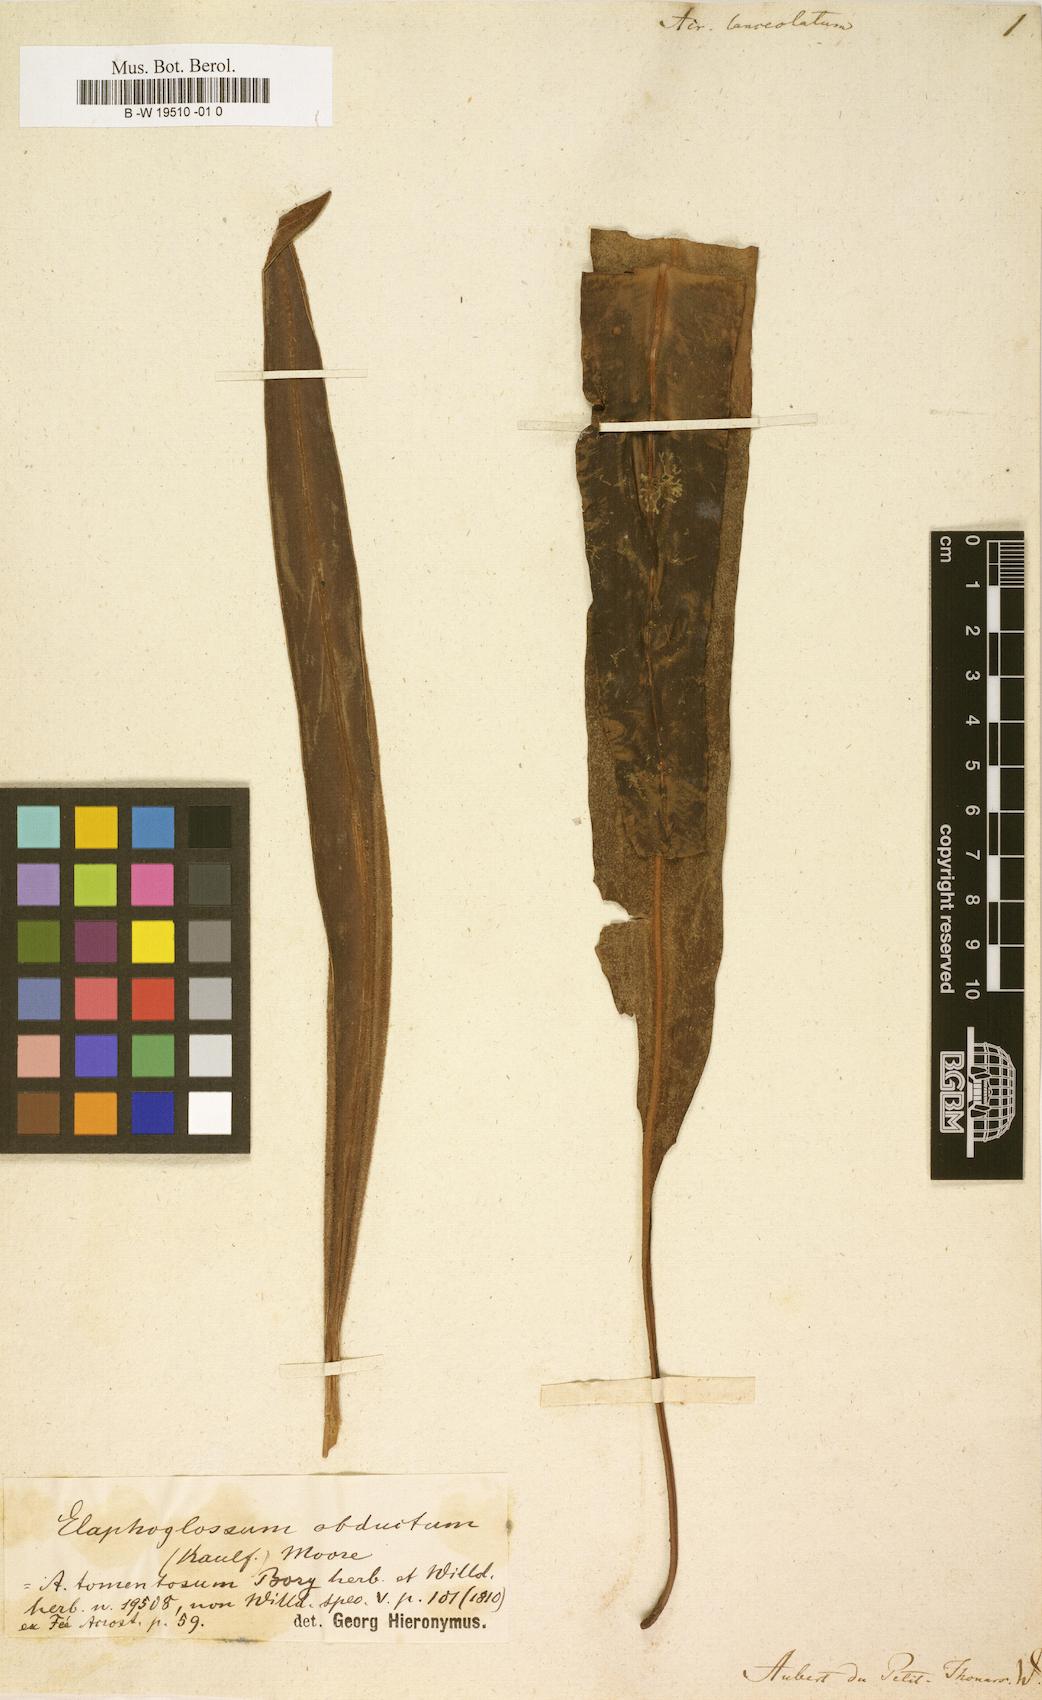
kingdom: Plantae
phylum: Tracheophyta
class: Polypodiopsida
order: Polypodiales
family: Polypodiaceae
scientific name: Polypodiaceae
